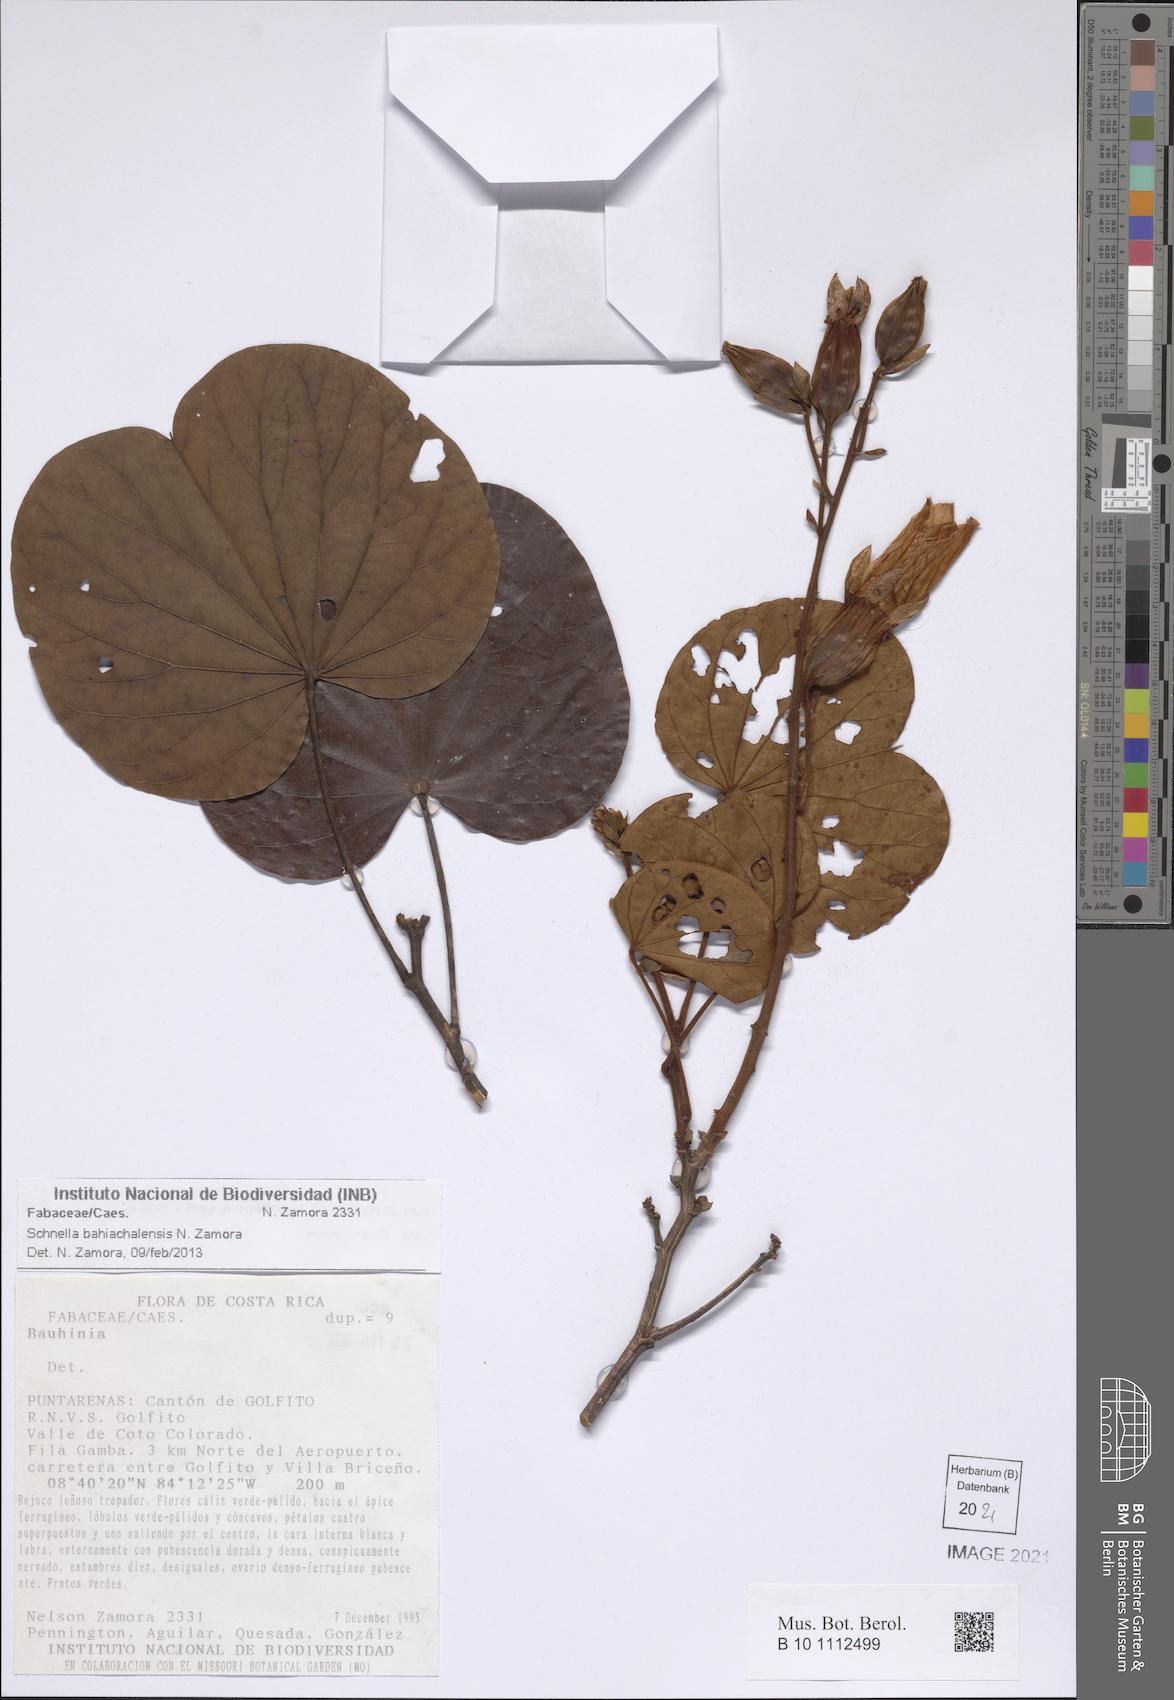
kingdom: Plantae
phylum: Tracheophyta
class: Magnoliopsida
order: Fabales
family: Fabaceae
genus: Schnella
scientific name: Schnella bahiachalensis
